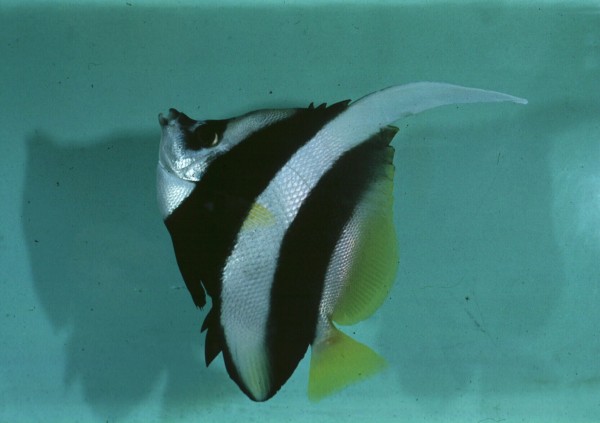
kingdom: Animalia
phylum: Chordata
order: Perciformes
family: Chaetodontidae
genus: Heniochus
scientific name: Heniochus acuminatus
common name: Pennant coralfish
